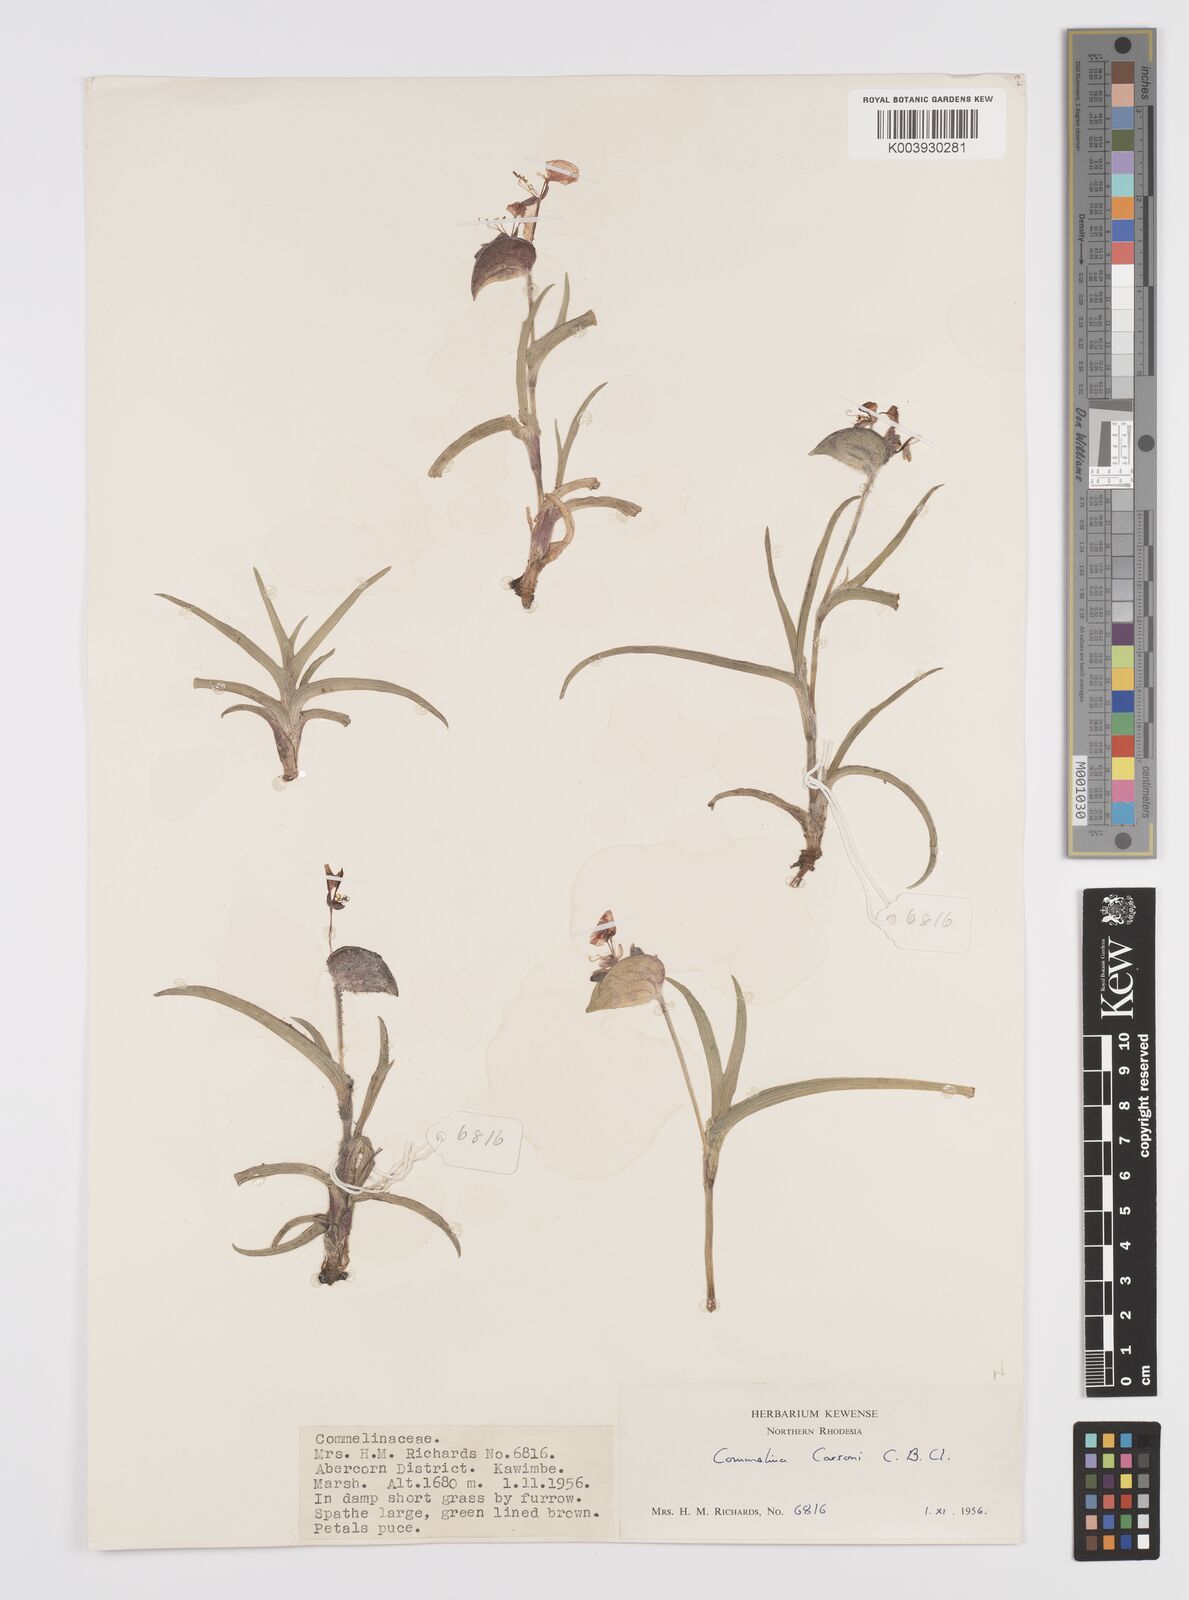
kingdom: Plantae
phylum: Tracheophyta
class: Liliopsida
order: Commelinales
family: Commelinaceae
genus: Commelina
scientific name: Commelina schweinfurthii
